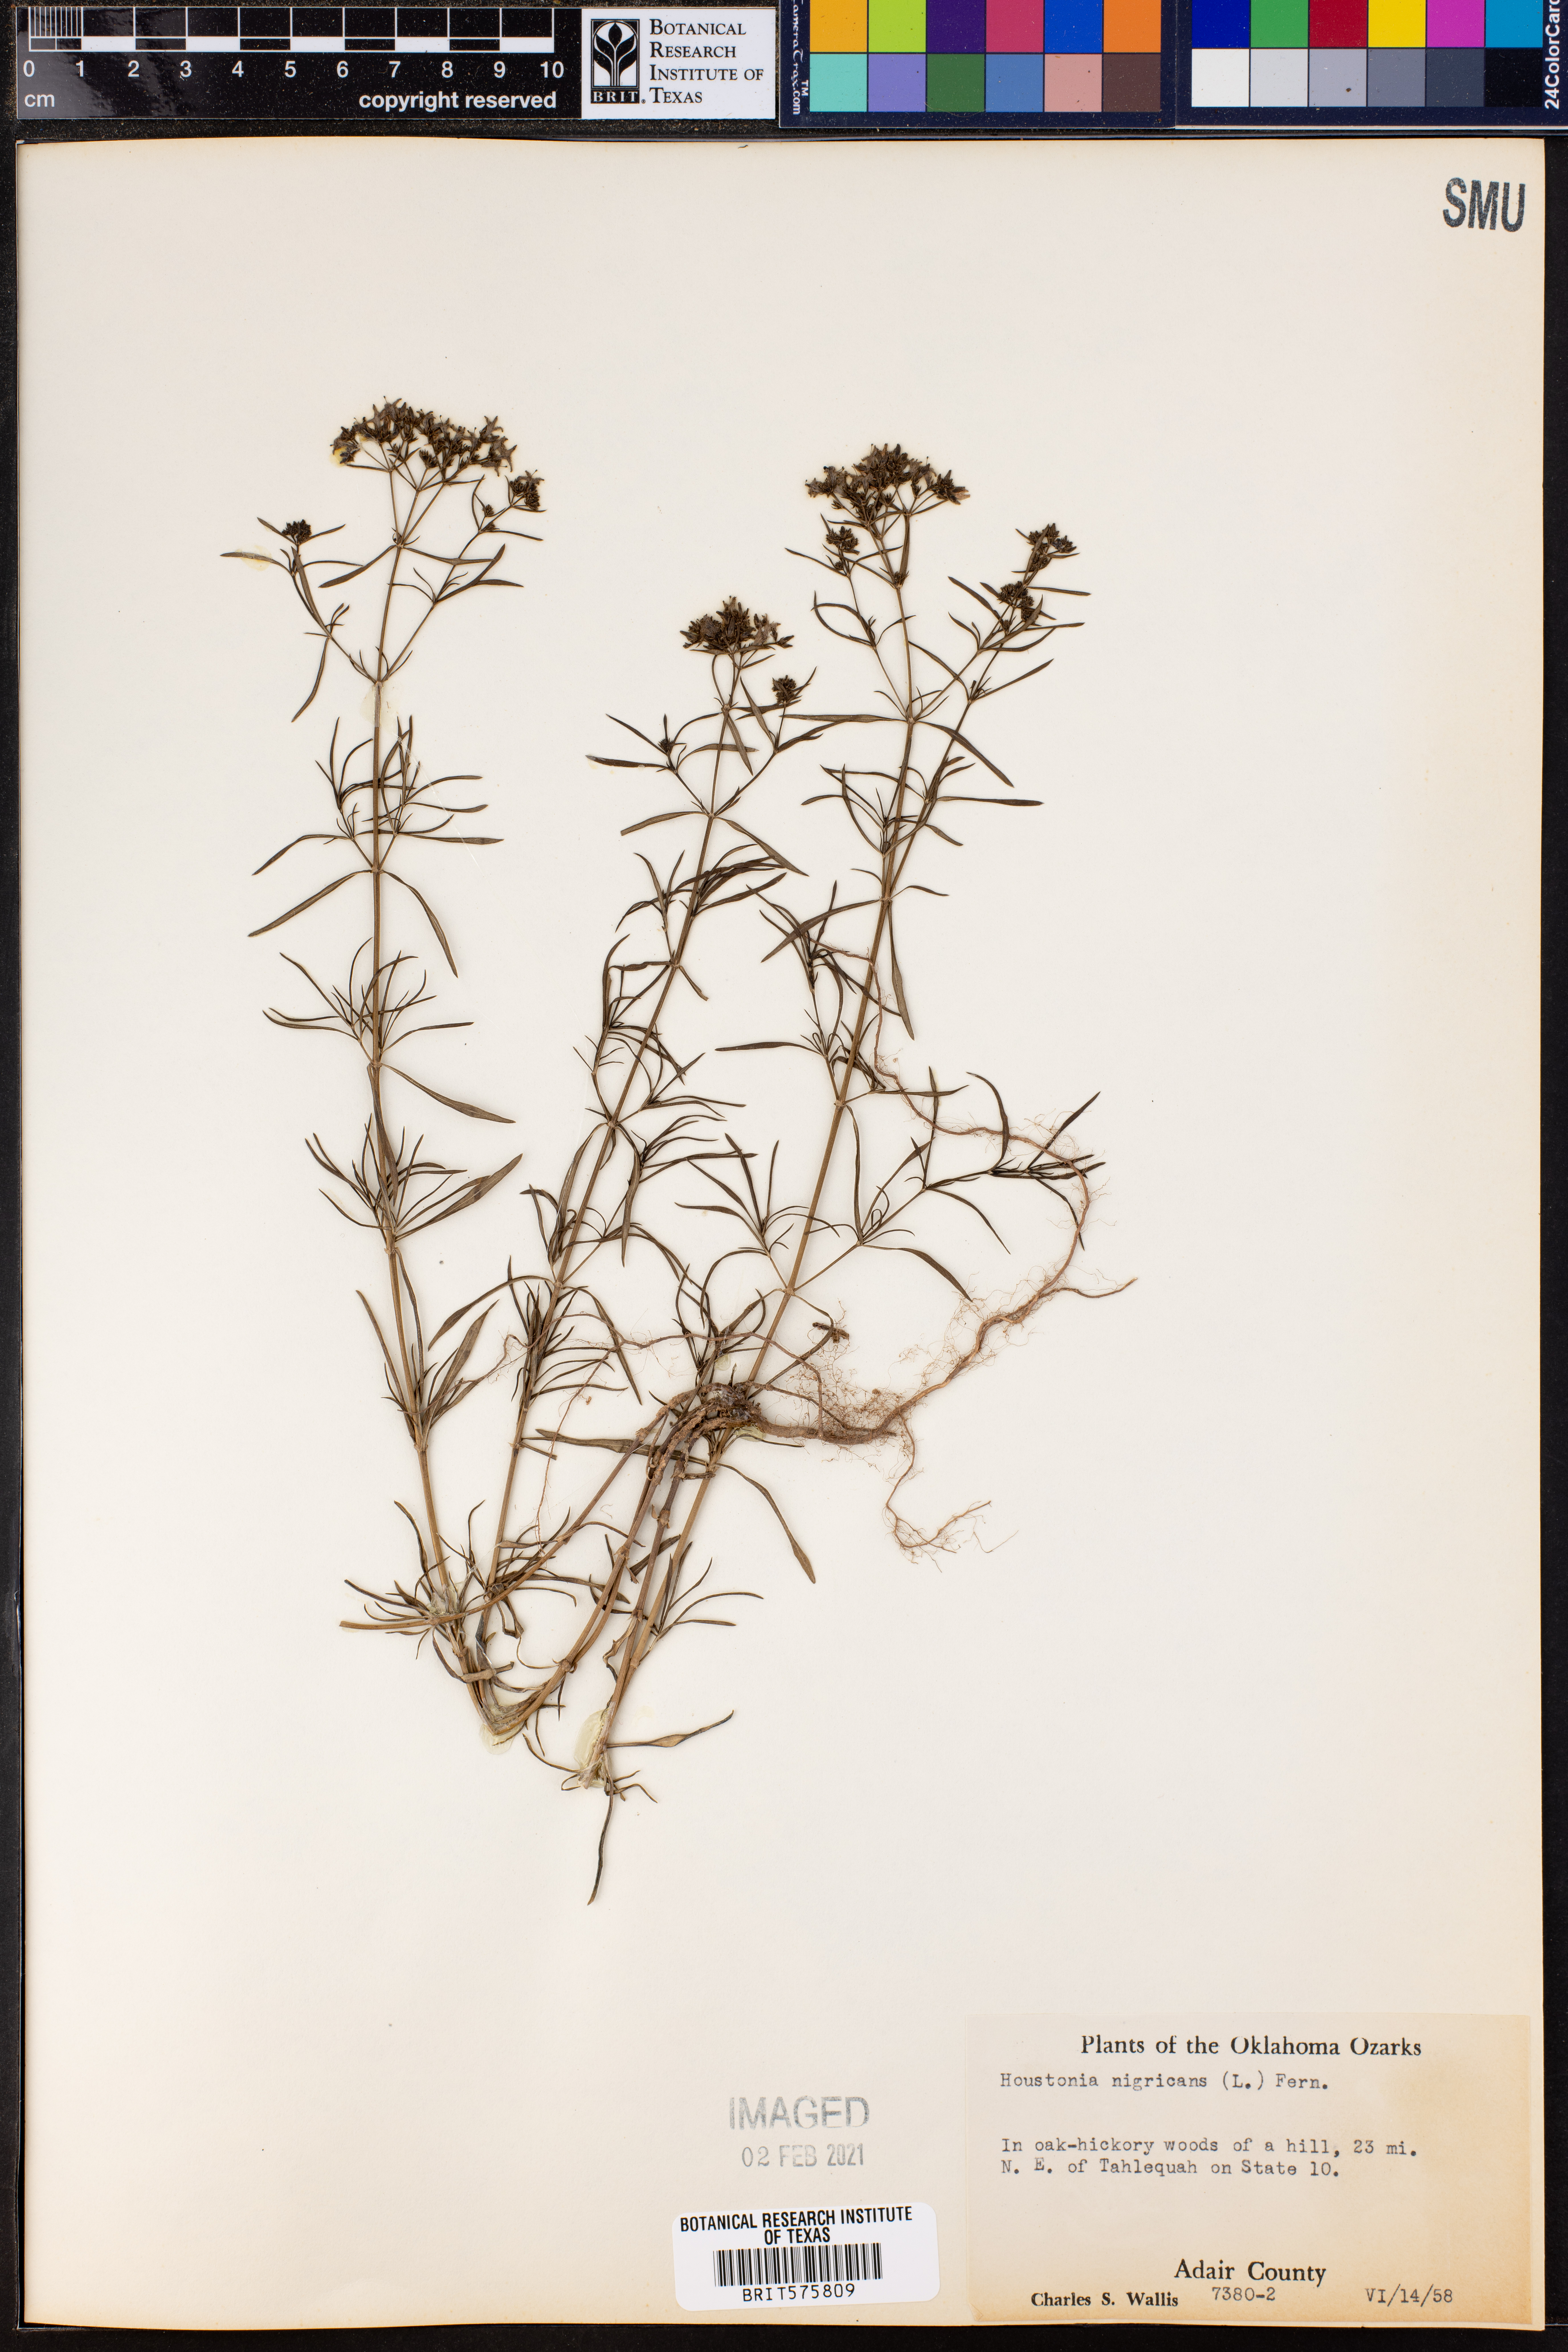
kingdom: Plantae
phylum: Tracheophyta
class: Magnoliopsida
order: Gentianales
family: Rubiaceae
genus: Stenaria
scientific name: Stenaria nigricans
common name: Diamondflowers
